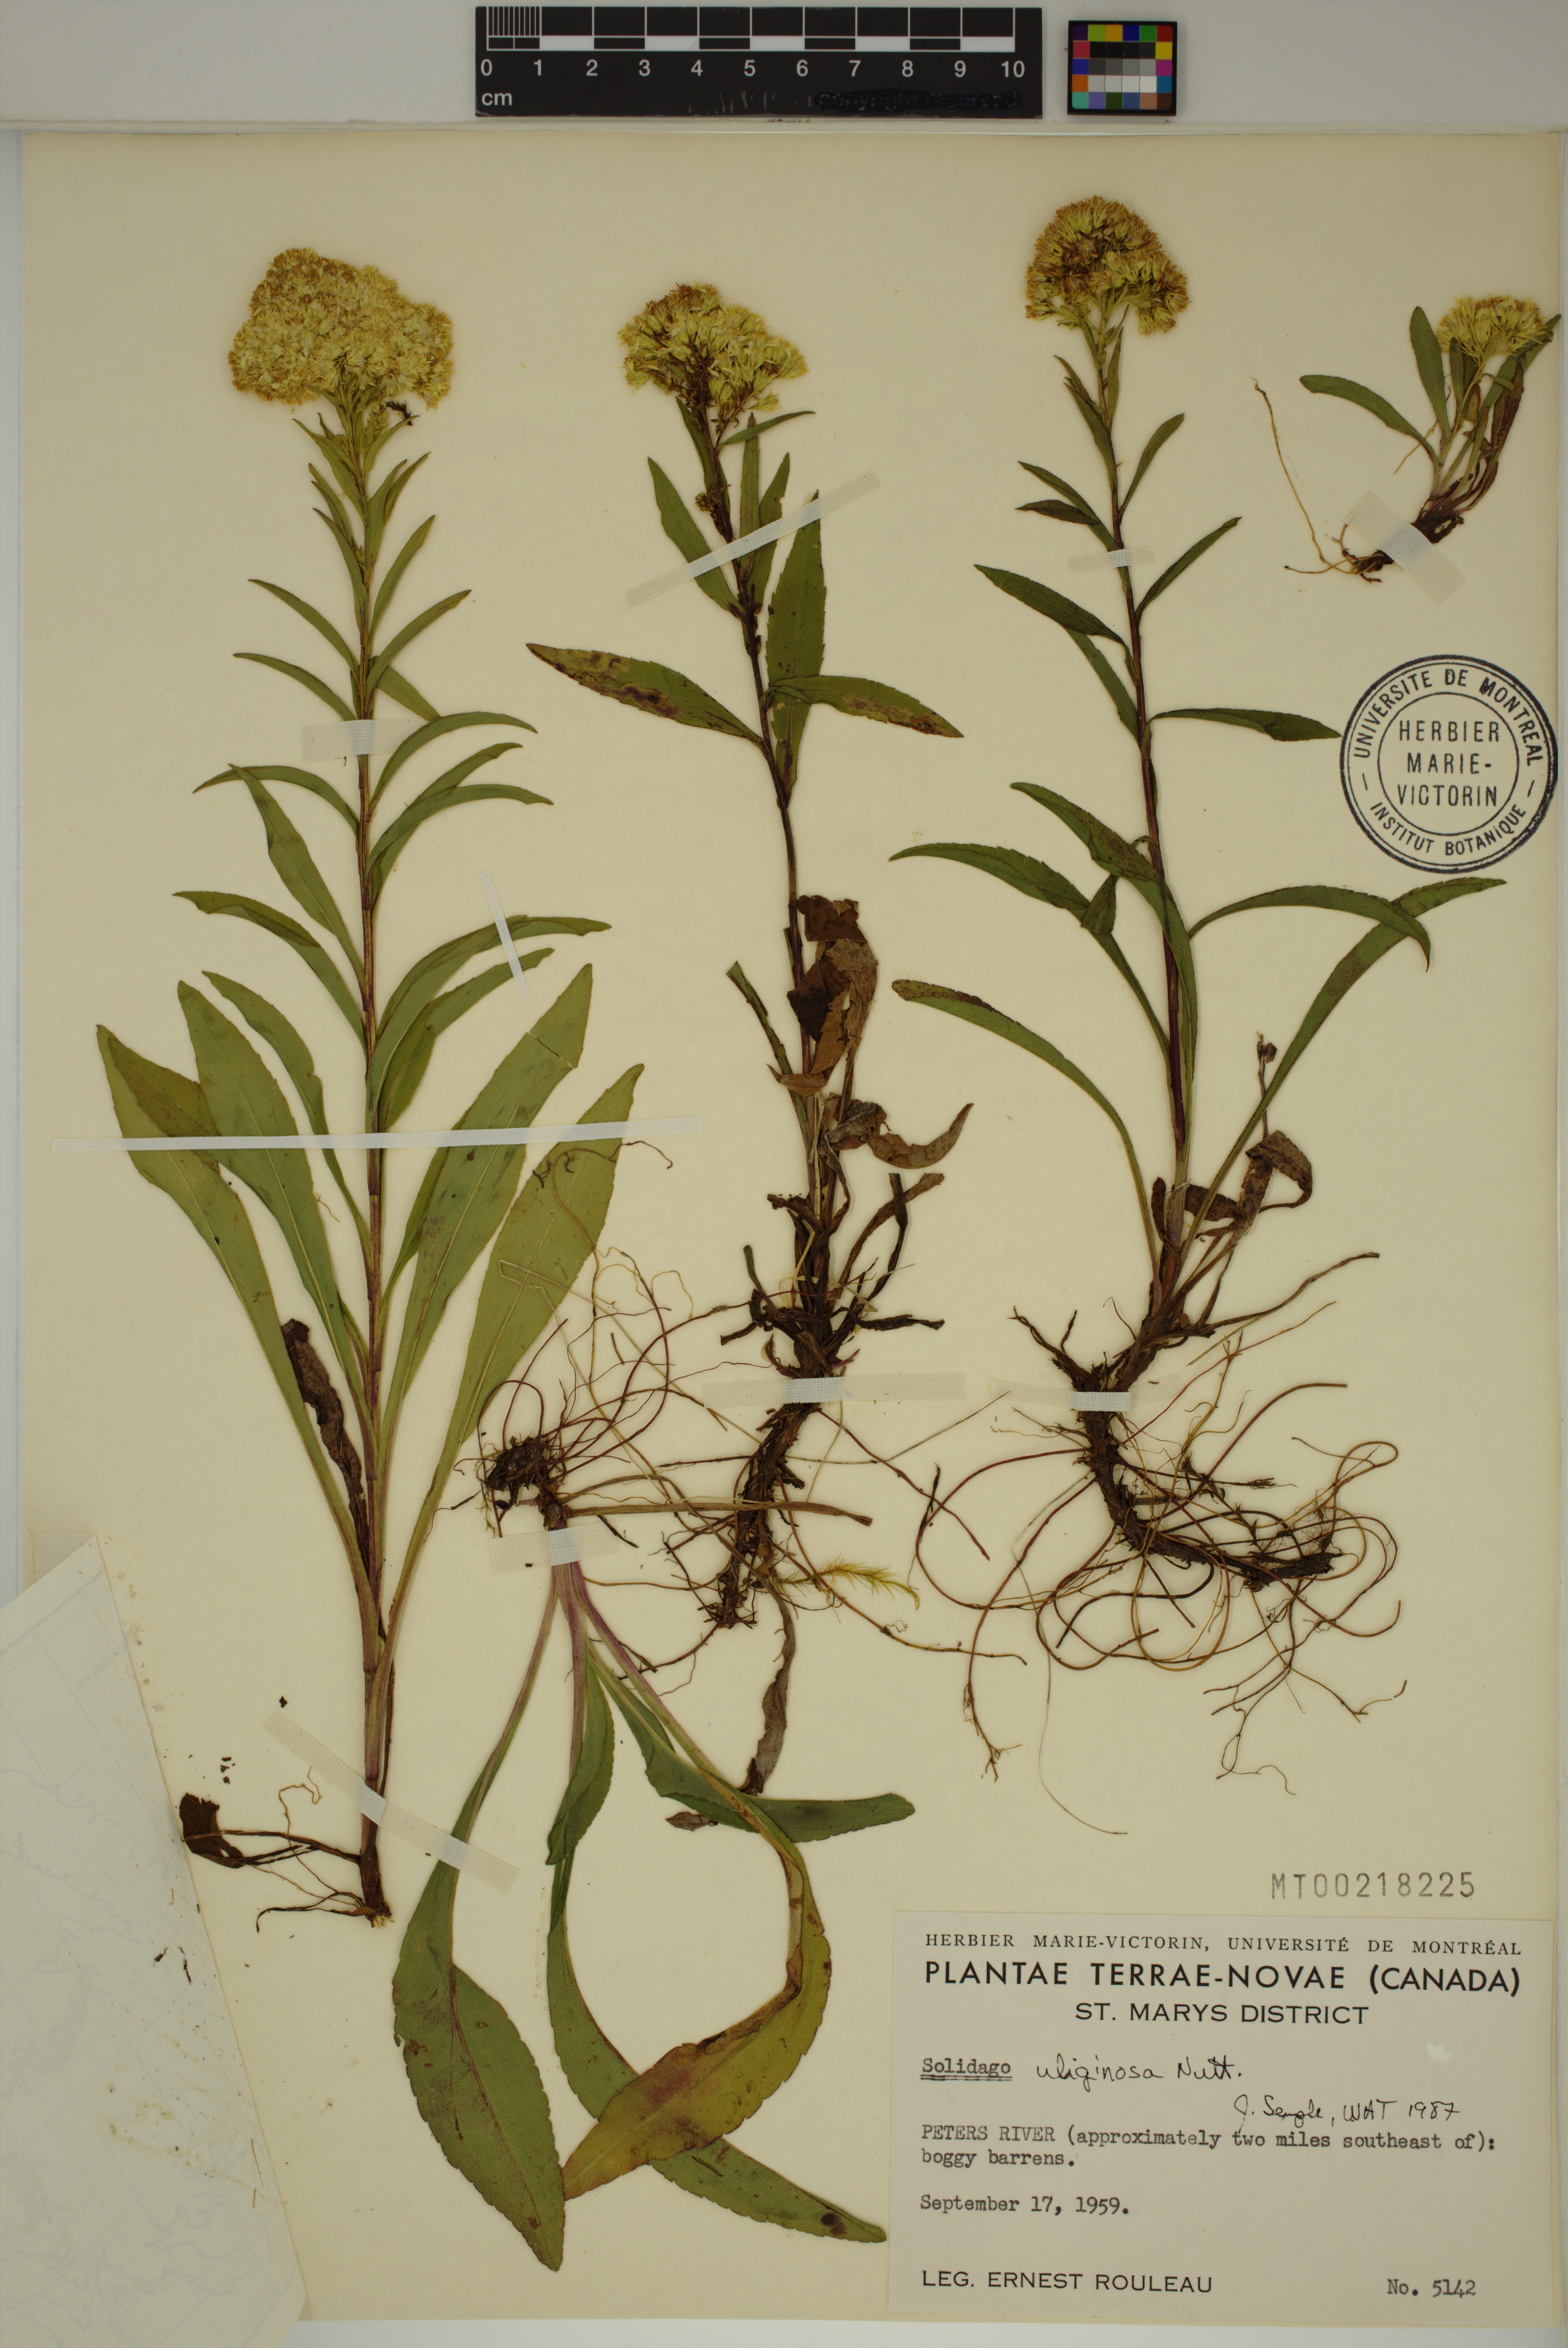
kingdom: Plantae
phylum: Tracheophyta
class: Magnoliopsida
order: Asterales
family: Asteraceae
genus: Solidago
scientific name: Solidago uliginosa
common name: Bog goldenrod
